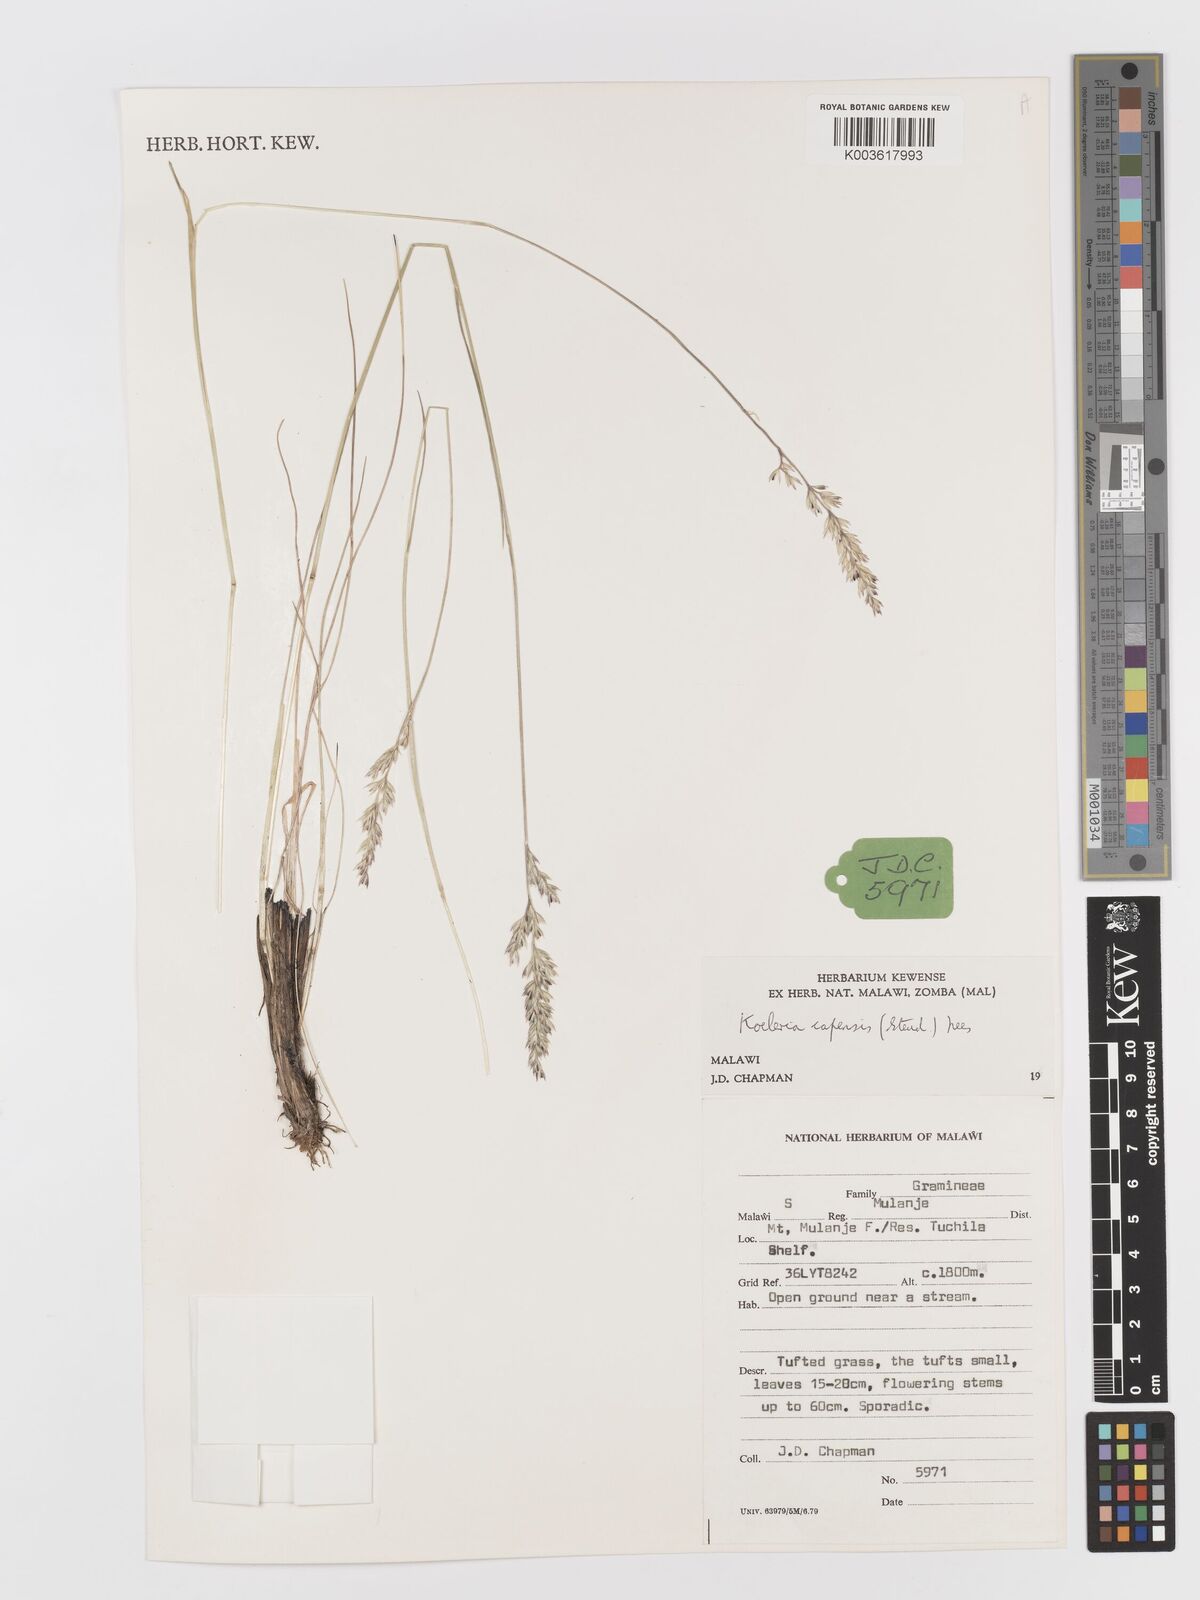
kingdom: Plantae
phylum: Tracheophyta
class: Liliopsida
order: Poales
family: Poaceae
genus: Koeleria
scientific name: Koeleria capensis
